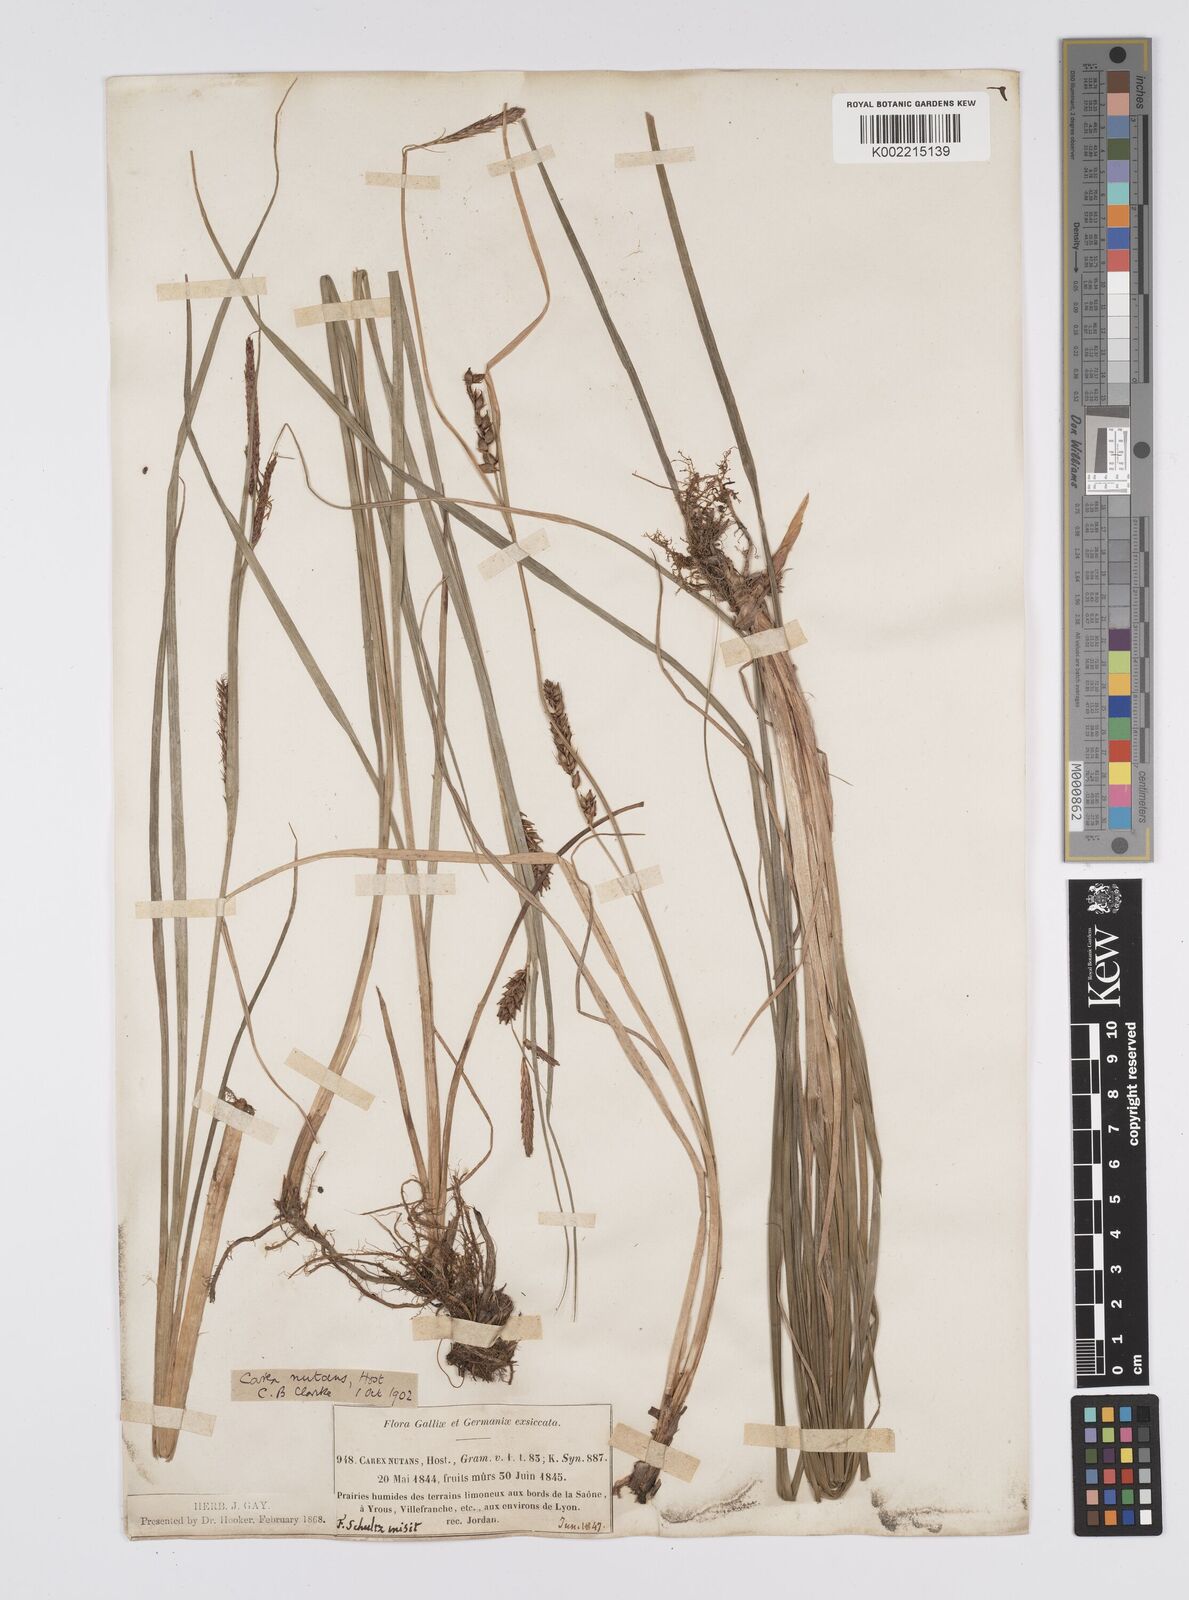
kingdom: Plantae
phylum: Tracheophyta
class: Liliopsida
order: Poales
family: Cyperaceae
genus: Carex
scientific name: Carex melanostachya
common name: Black-spiked sedge
